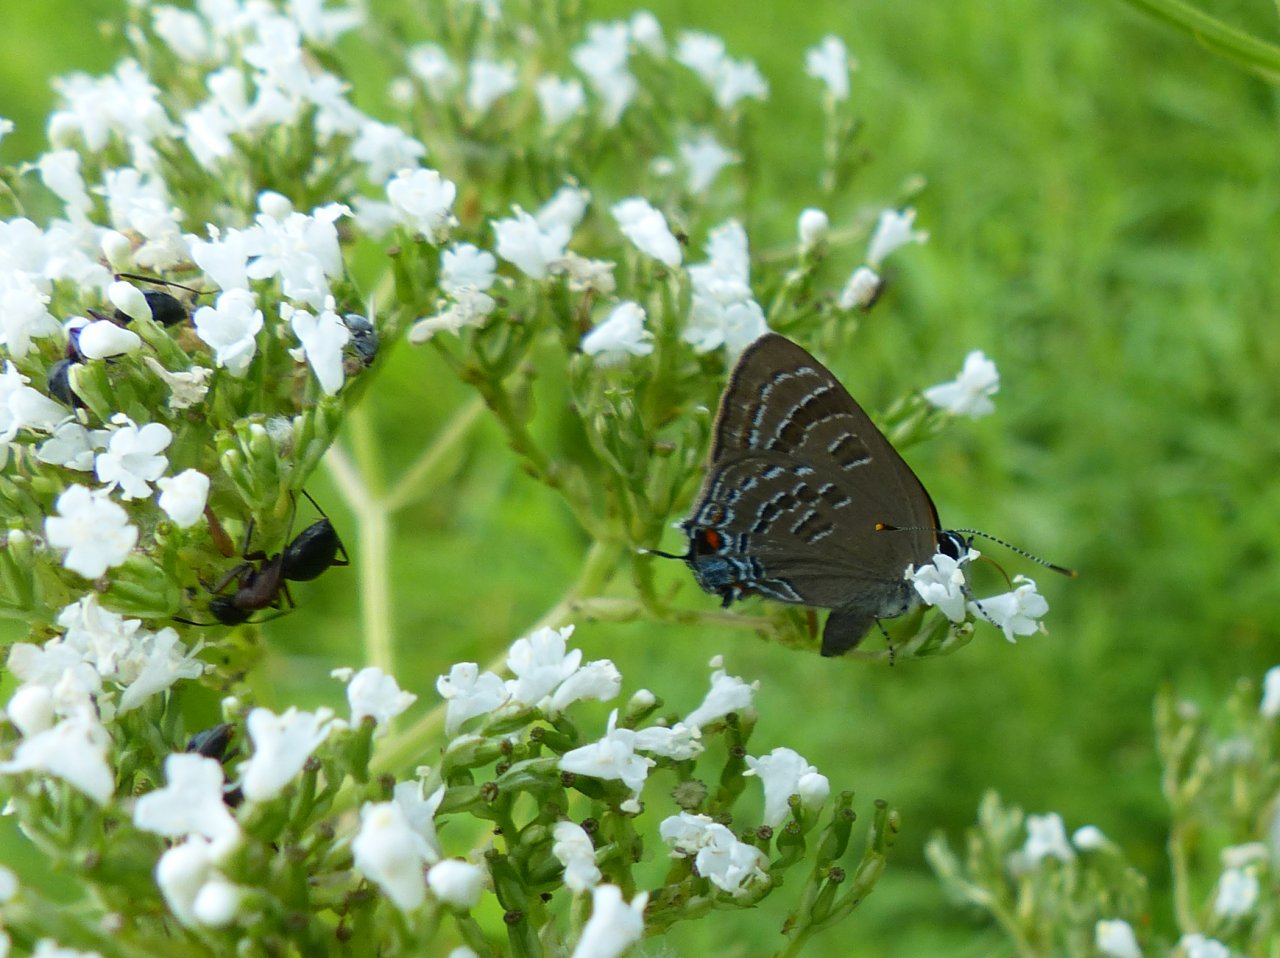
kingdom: Animalia
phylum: Arthropoda
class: Insecta
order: Lepidoptera
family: Lycaenidae
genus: Strymon
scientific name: Strymon caryaevorus
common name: Hickory Hairstreak
